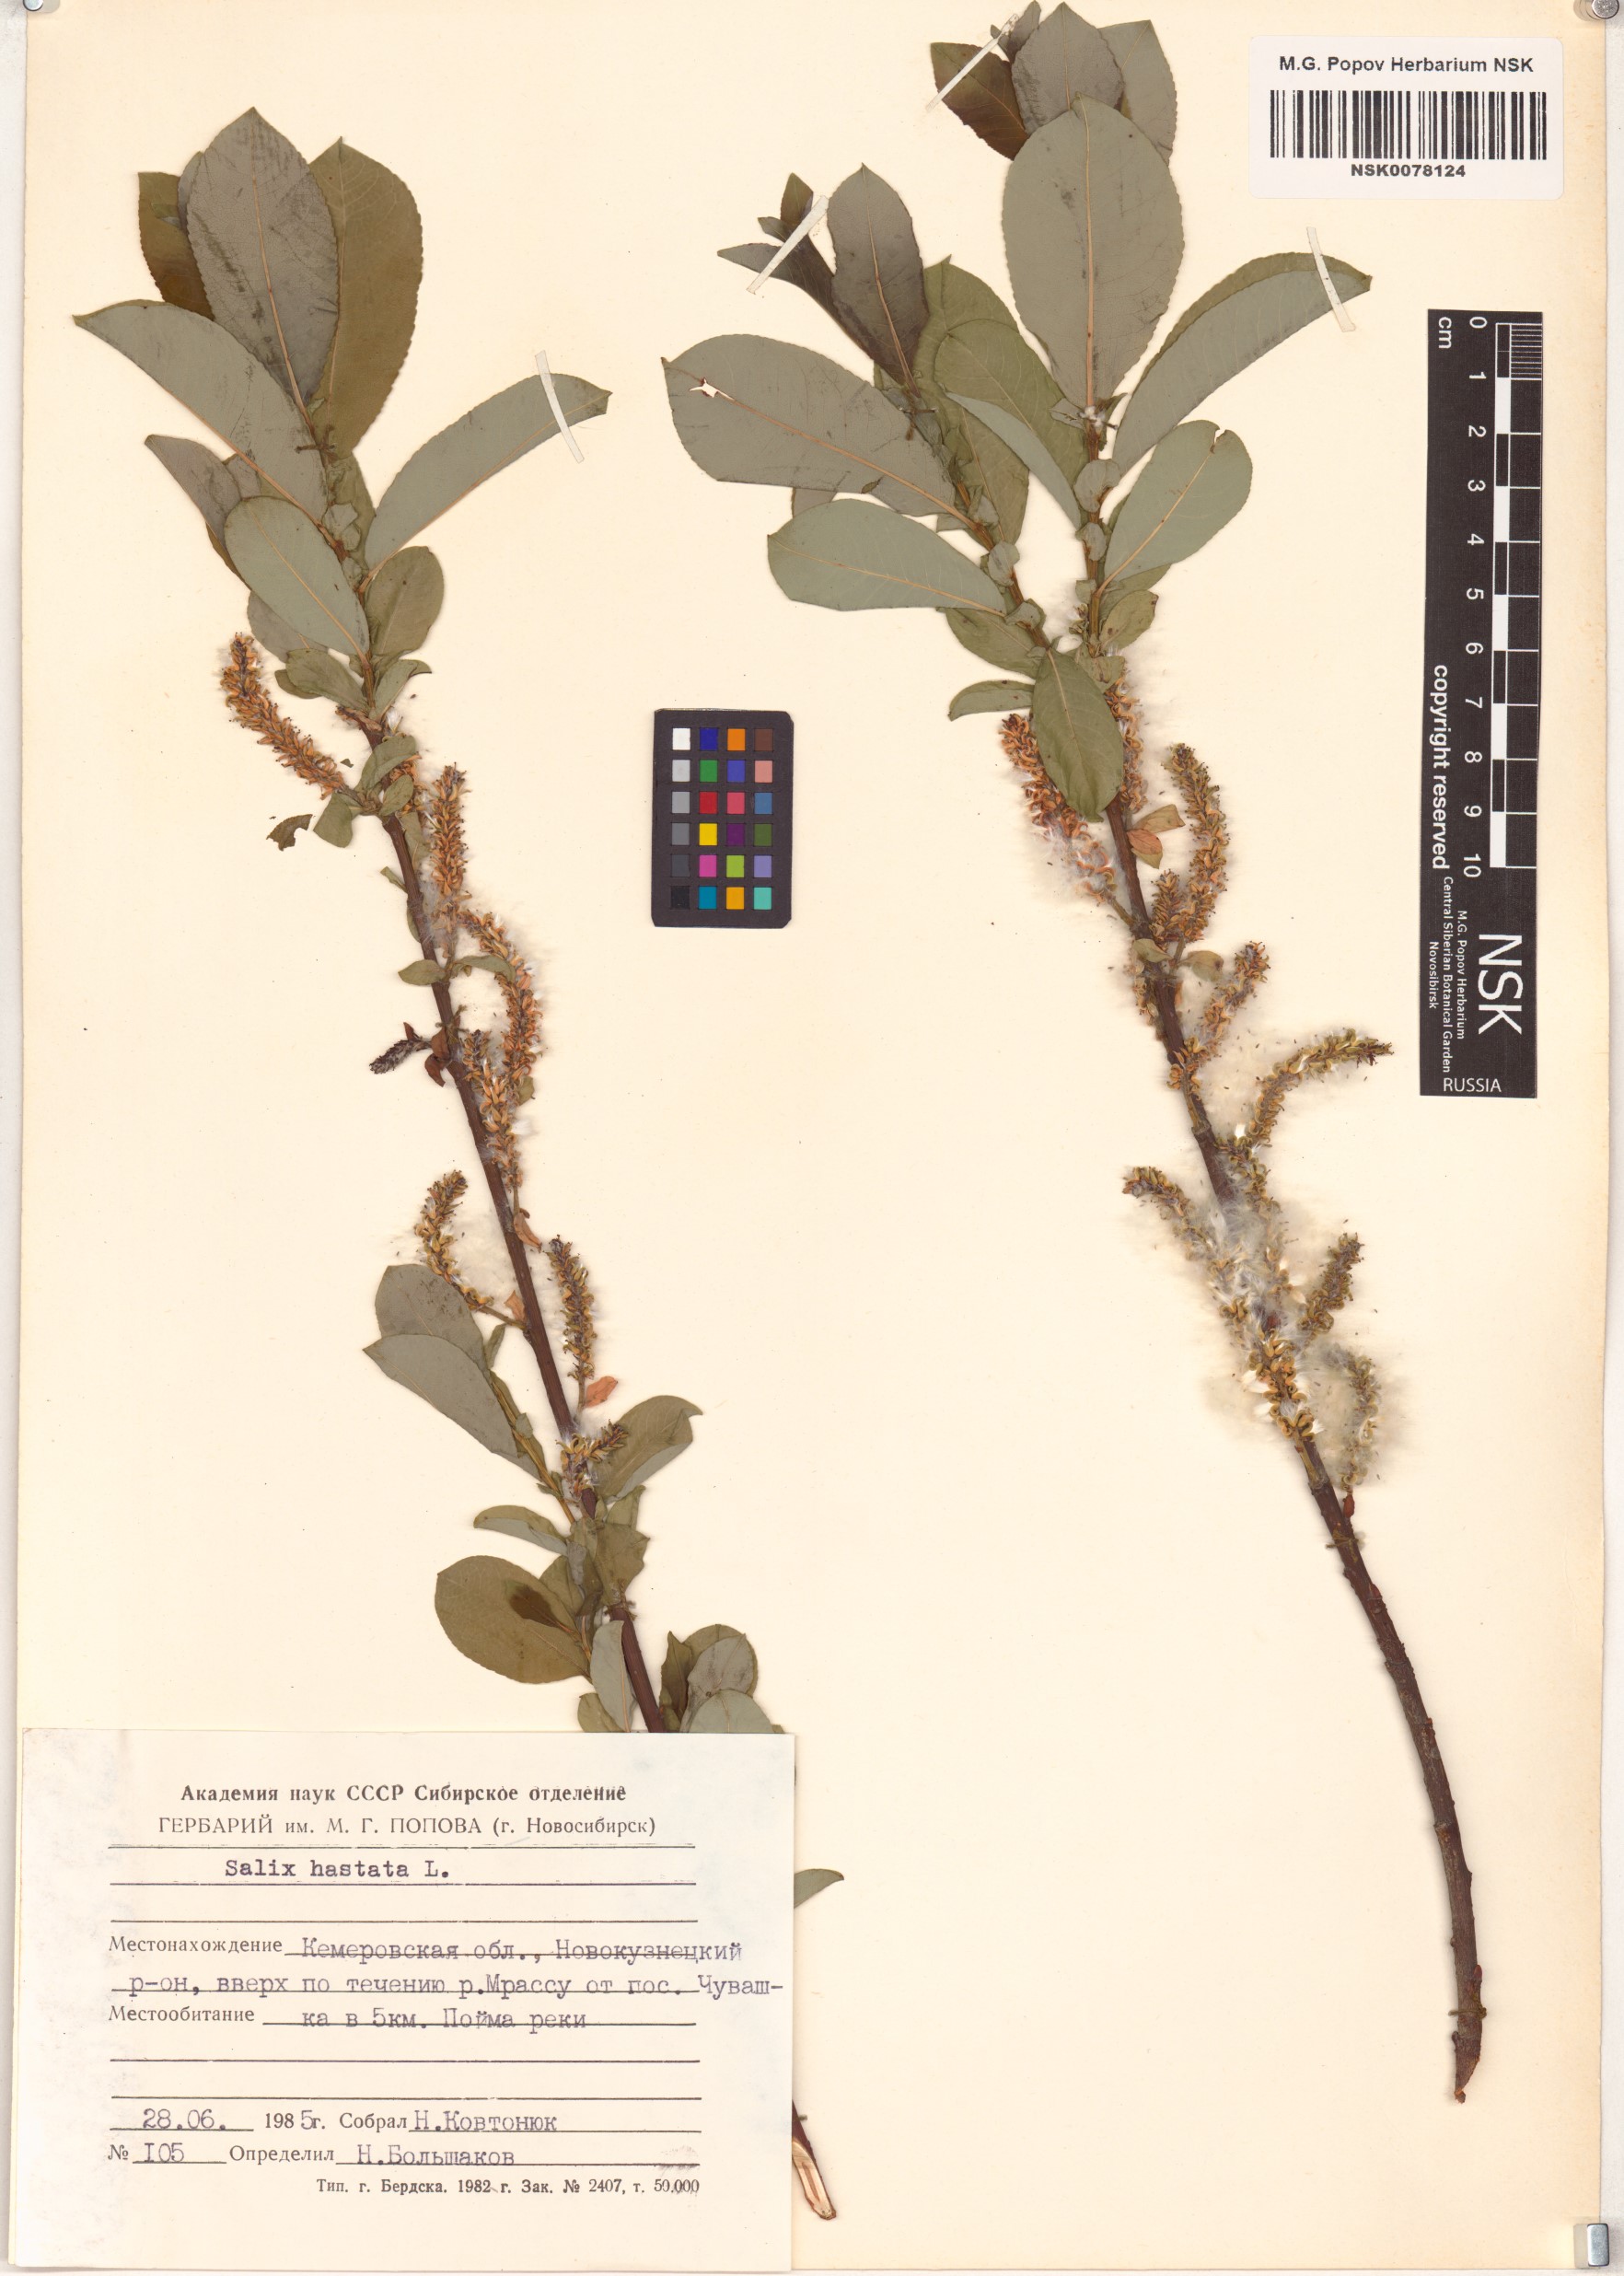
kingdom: Plantae
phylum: Tracheophyta
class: Magnoliopsida
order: Malpighiales
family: Salicaceae
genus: Salix
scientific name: Salix hastata
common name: Halberd willow
